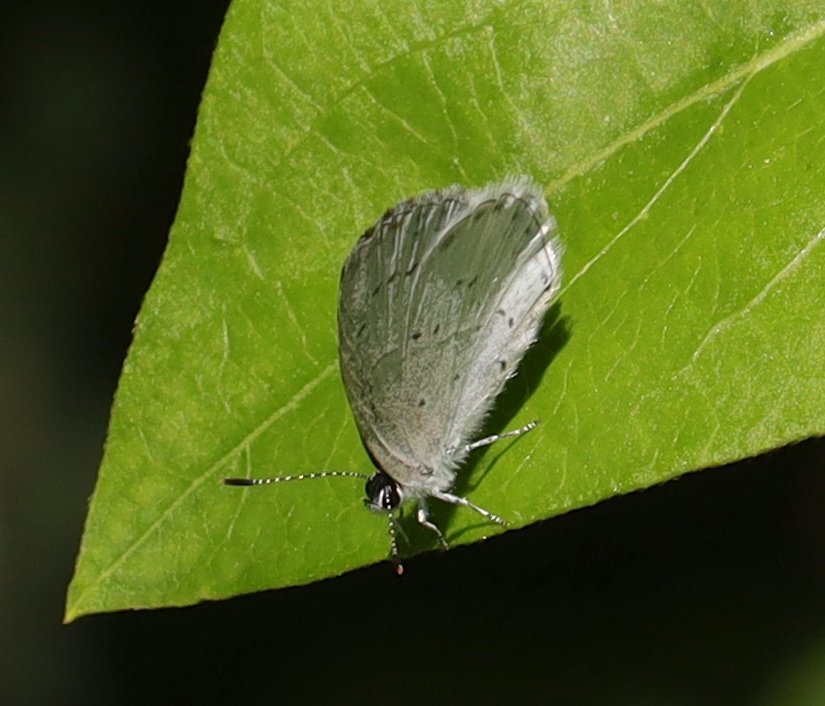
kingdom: Animalia
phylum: Arthropoda
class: Insecta
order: Lepidoptera
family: Lycaenidae
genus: Cyaniris
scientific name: Cyaniris neglecta
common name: Summer Azure
